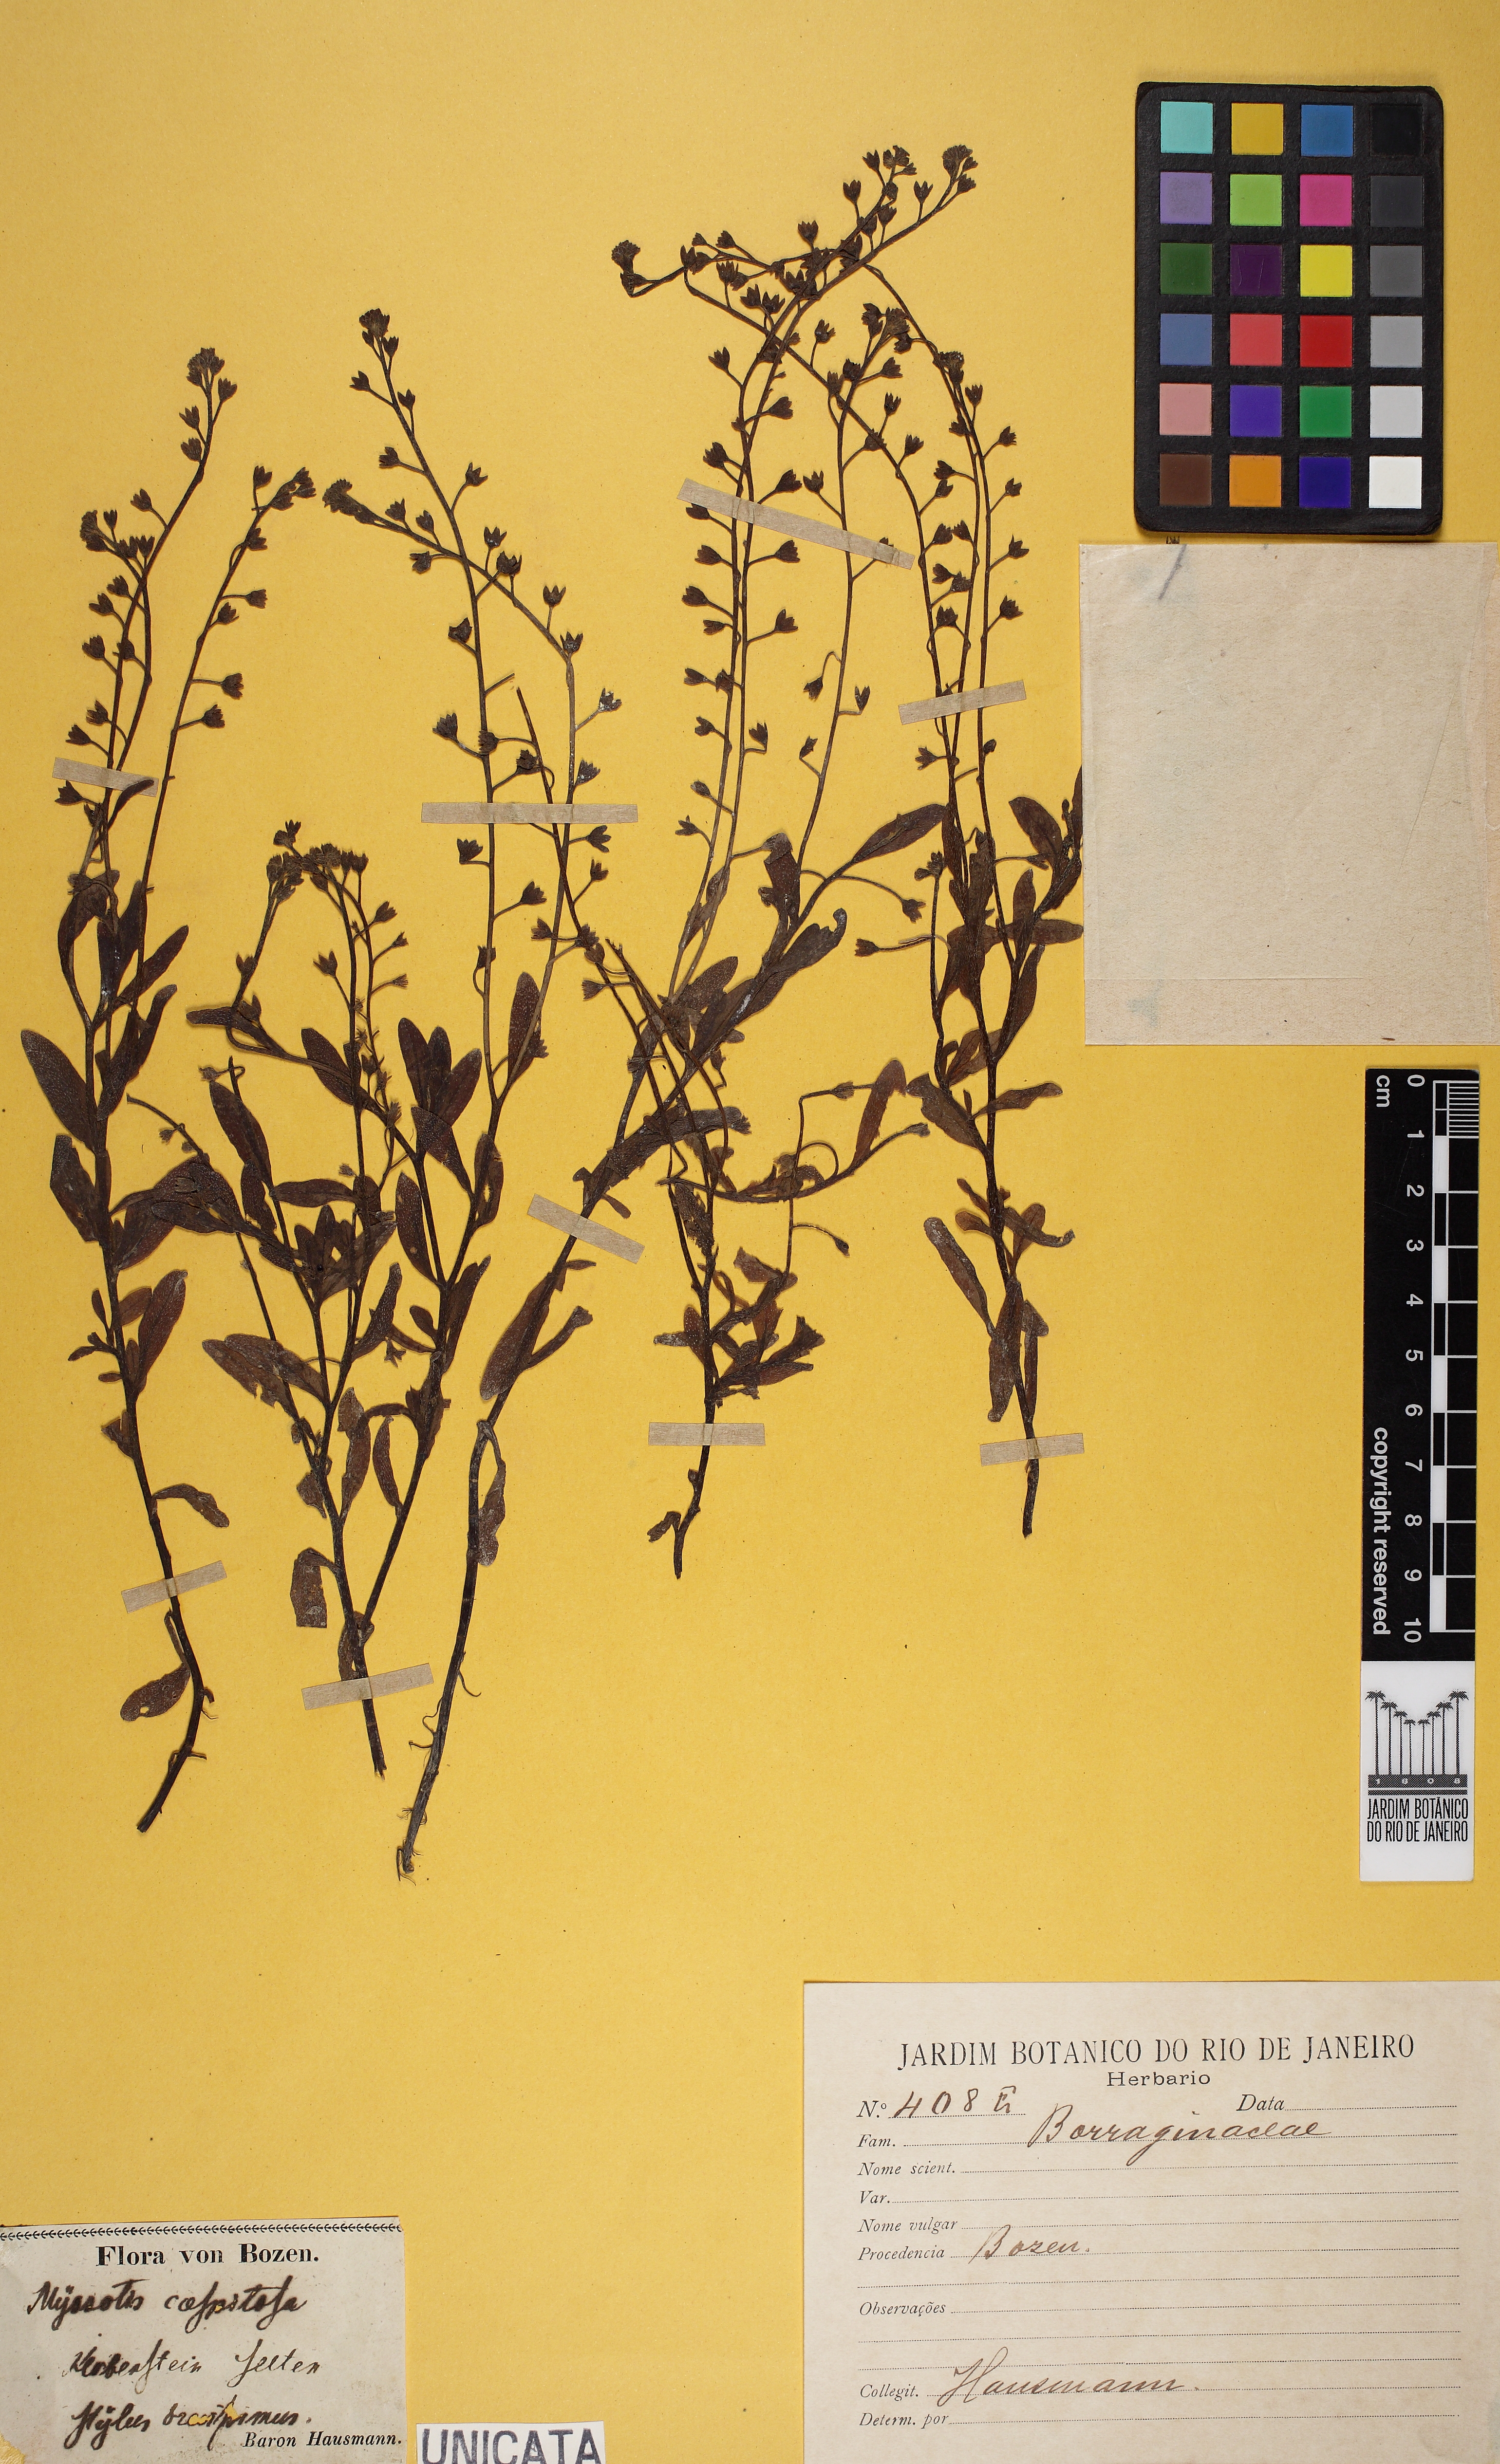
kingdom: Plantae
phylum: Tracheophyta
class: Magnoliopsida
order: Boraginales
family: Boraginaceae
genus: Myosotis
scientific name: Myosotis caespitosa
